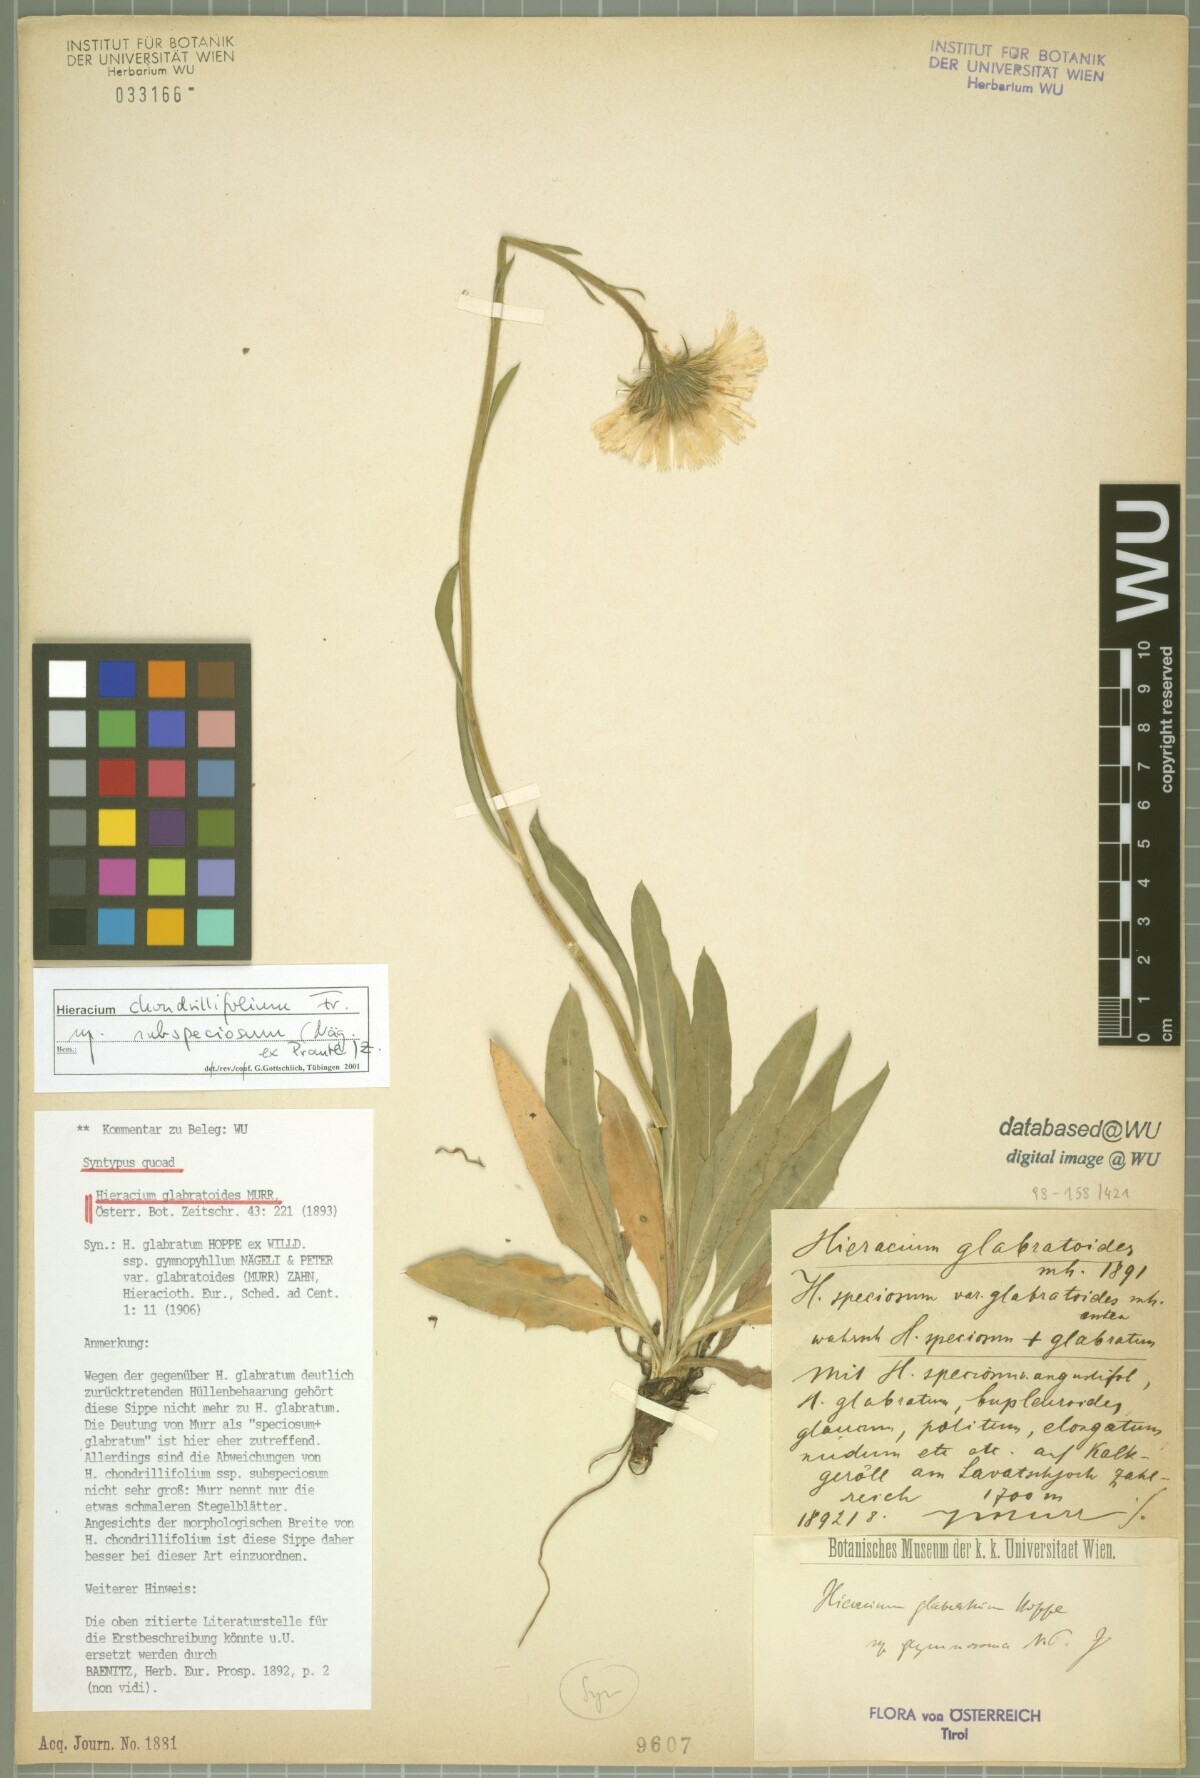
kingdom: Plantae
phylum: Tracheophyta
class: Magnoliopsida
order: Asterales
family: Asteraceae
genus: Hieracium
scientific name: Hieracium glabratum
